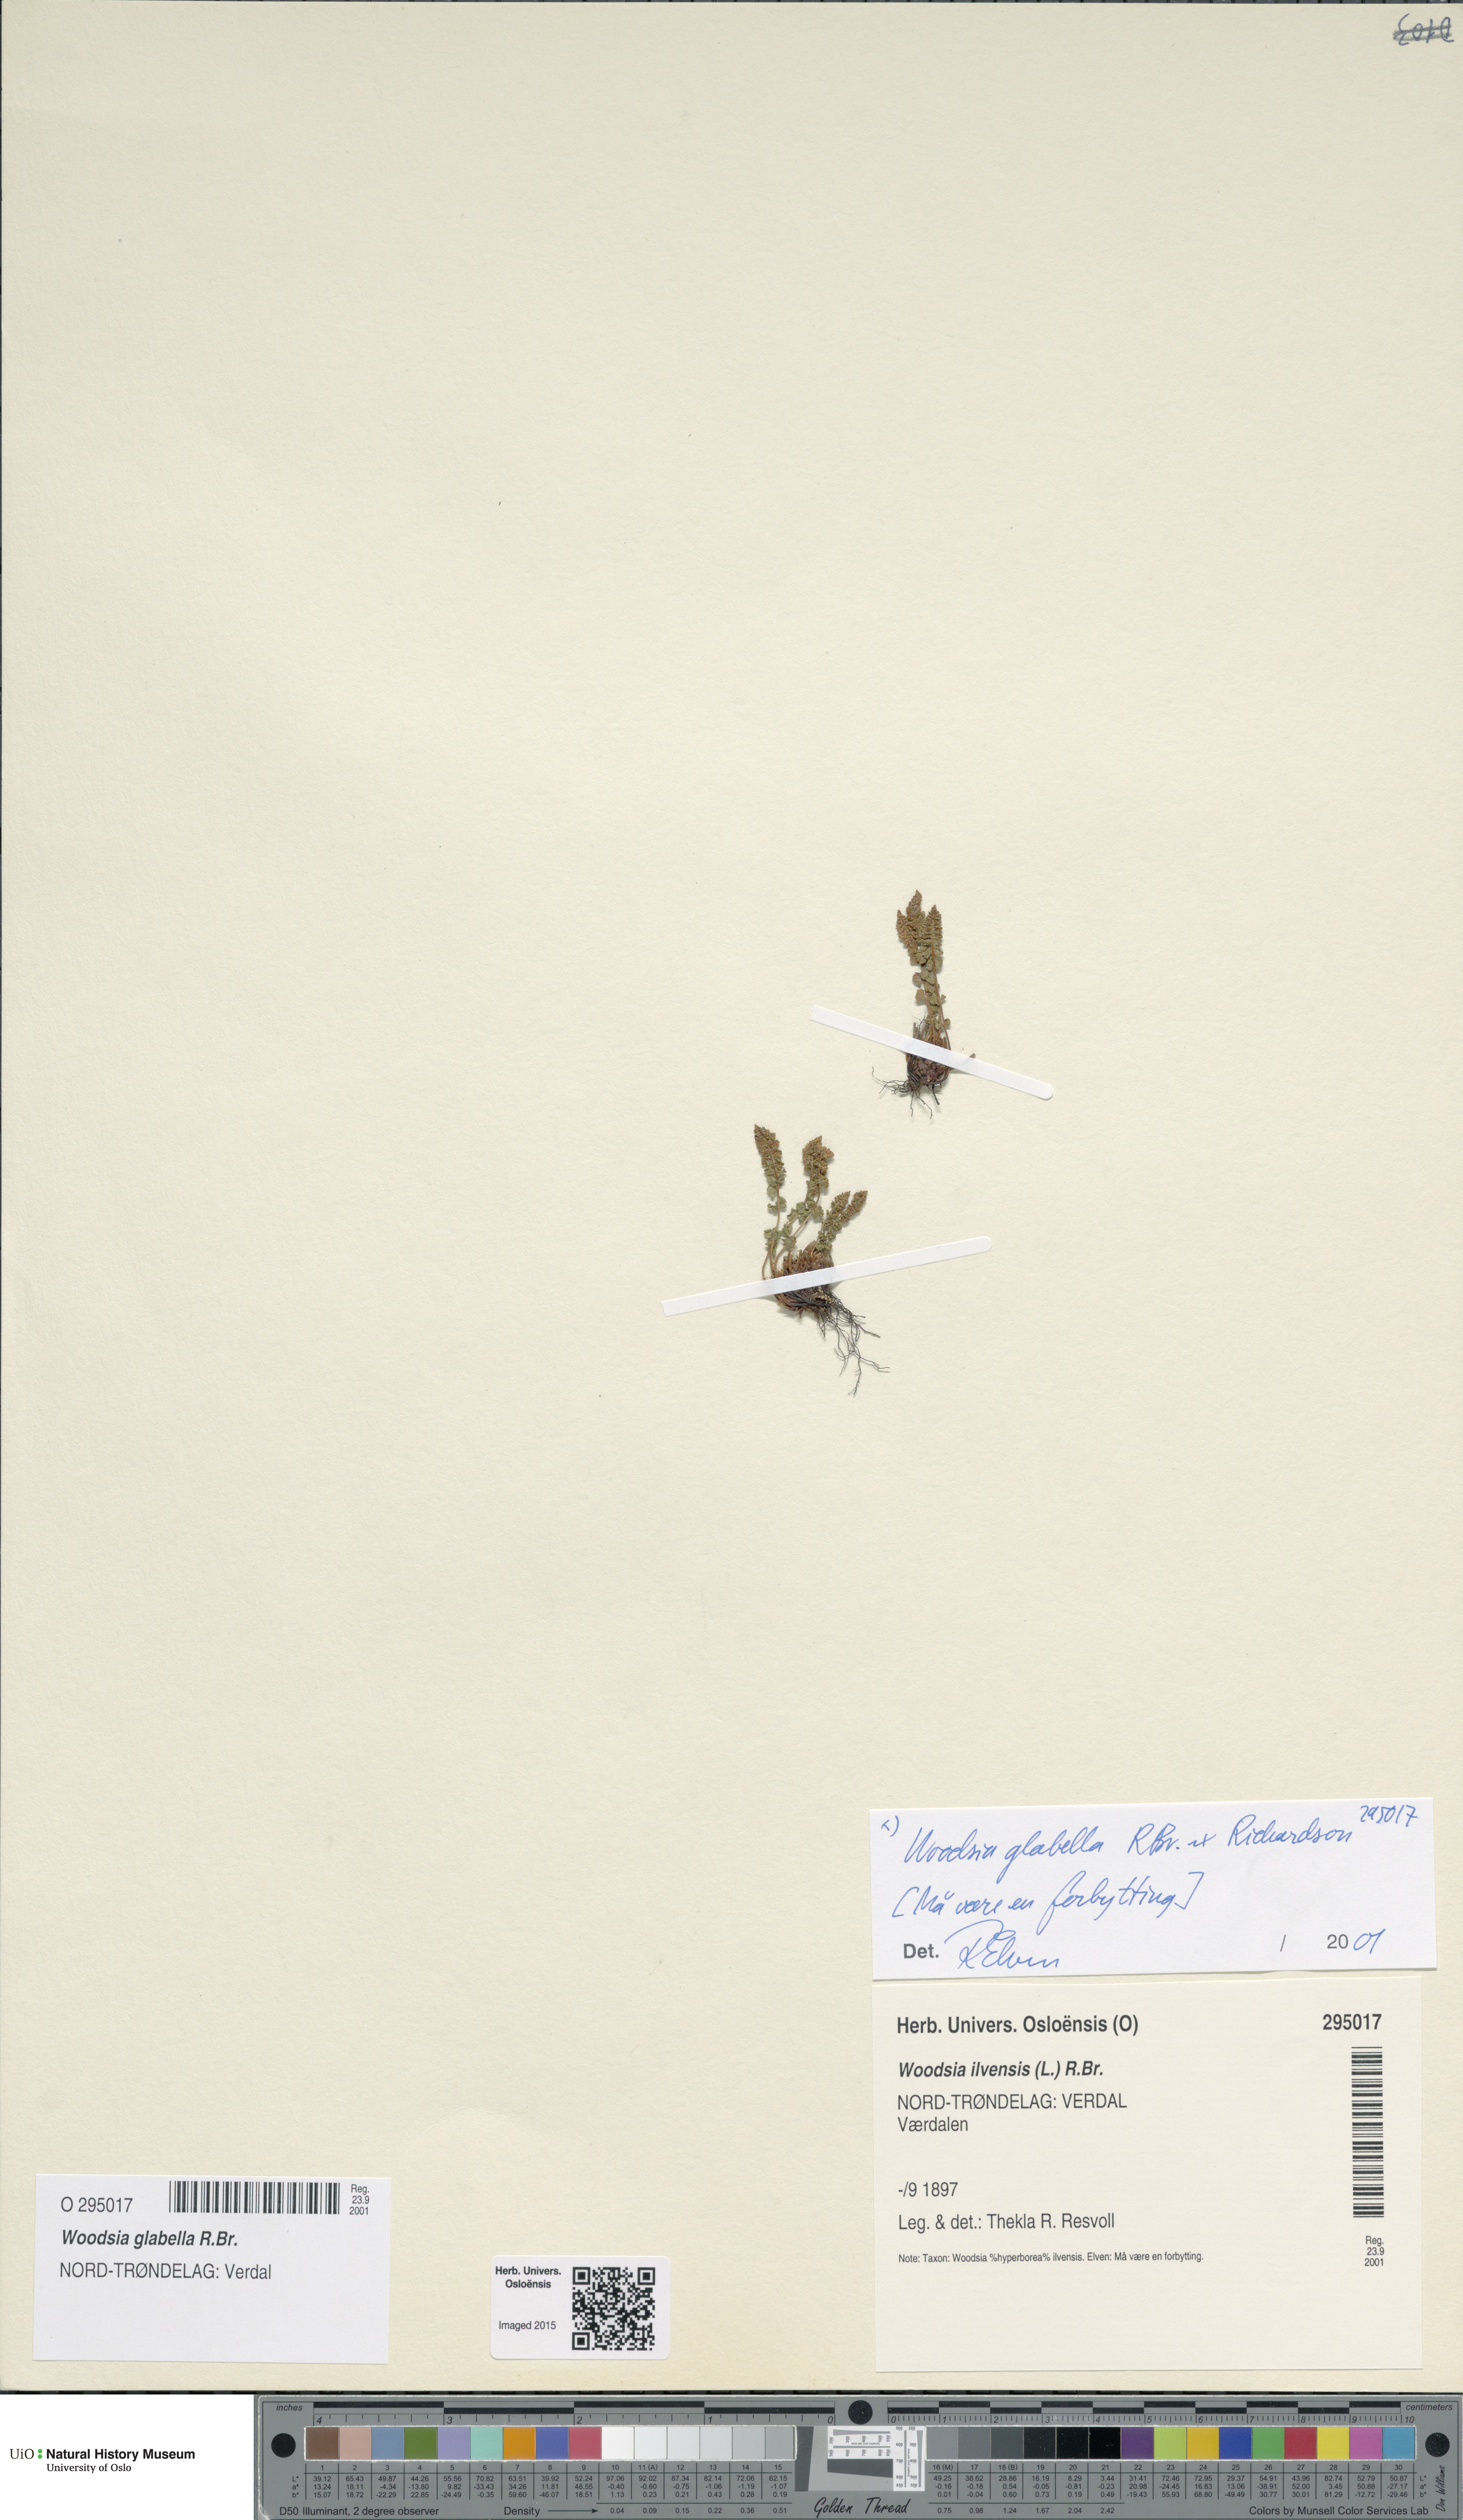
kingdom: Plantae
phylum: Tracheophyta
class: Polypodiopsida
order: Polypodiales
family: Woodsiaceae
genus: Woodsia
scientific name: Woodsia glabella
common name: Smooth woodsia
